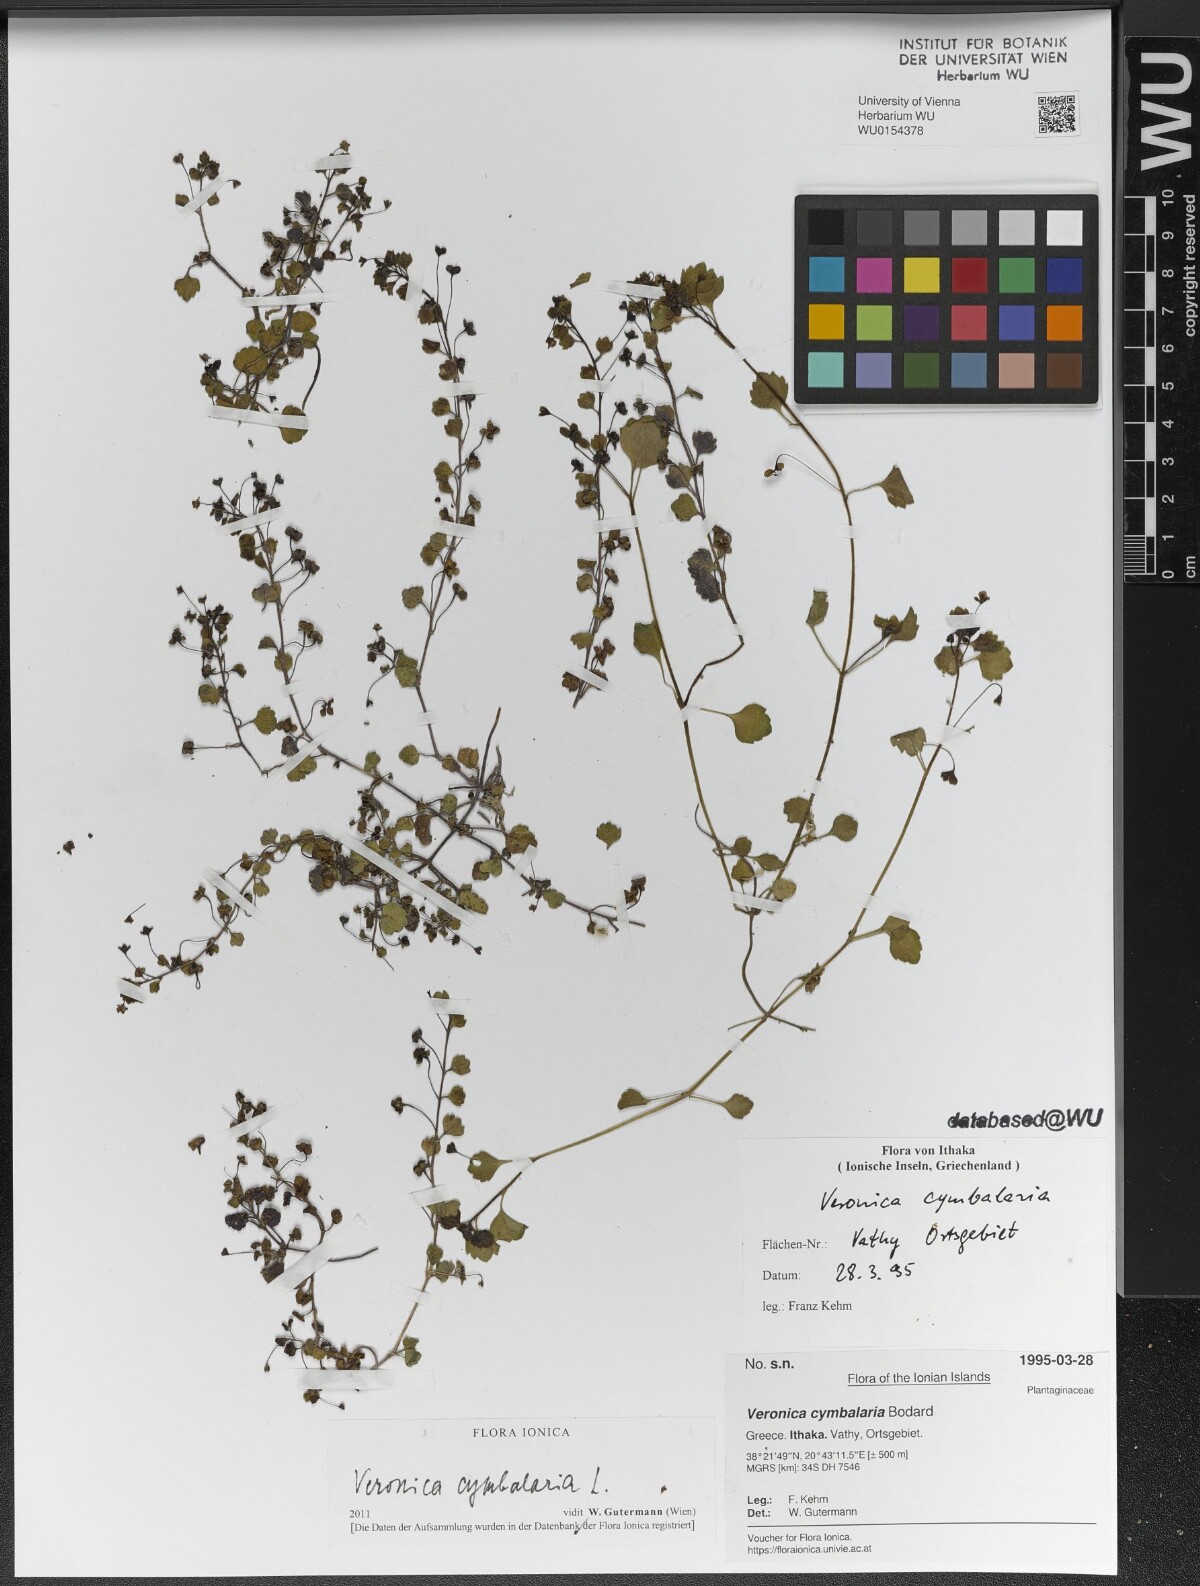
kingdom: Plantae
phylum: Tracheophyta
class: Magnoliopsida
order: Lamiales
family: Plantaginaceae
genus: Veronica
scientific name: Veronica cymbalaria
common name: Pale speedwell
